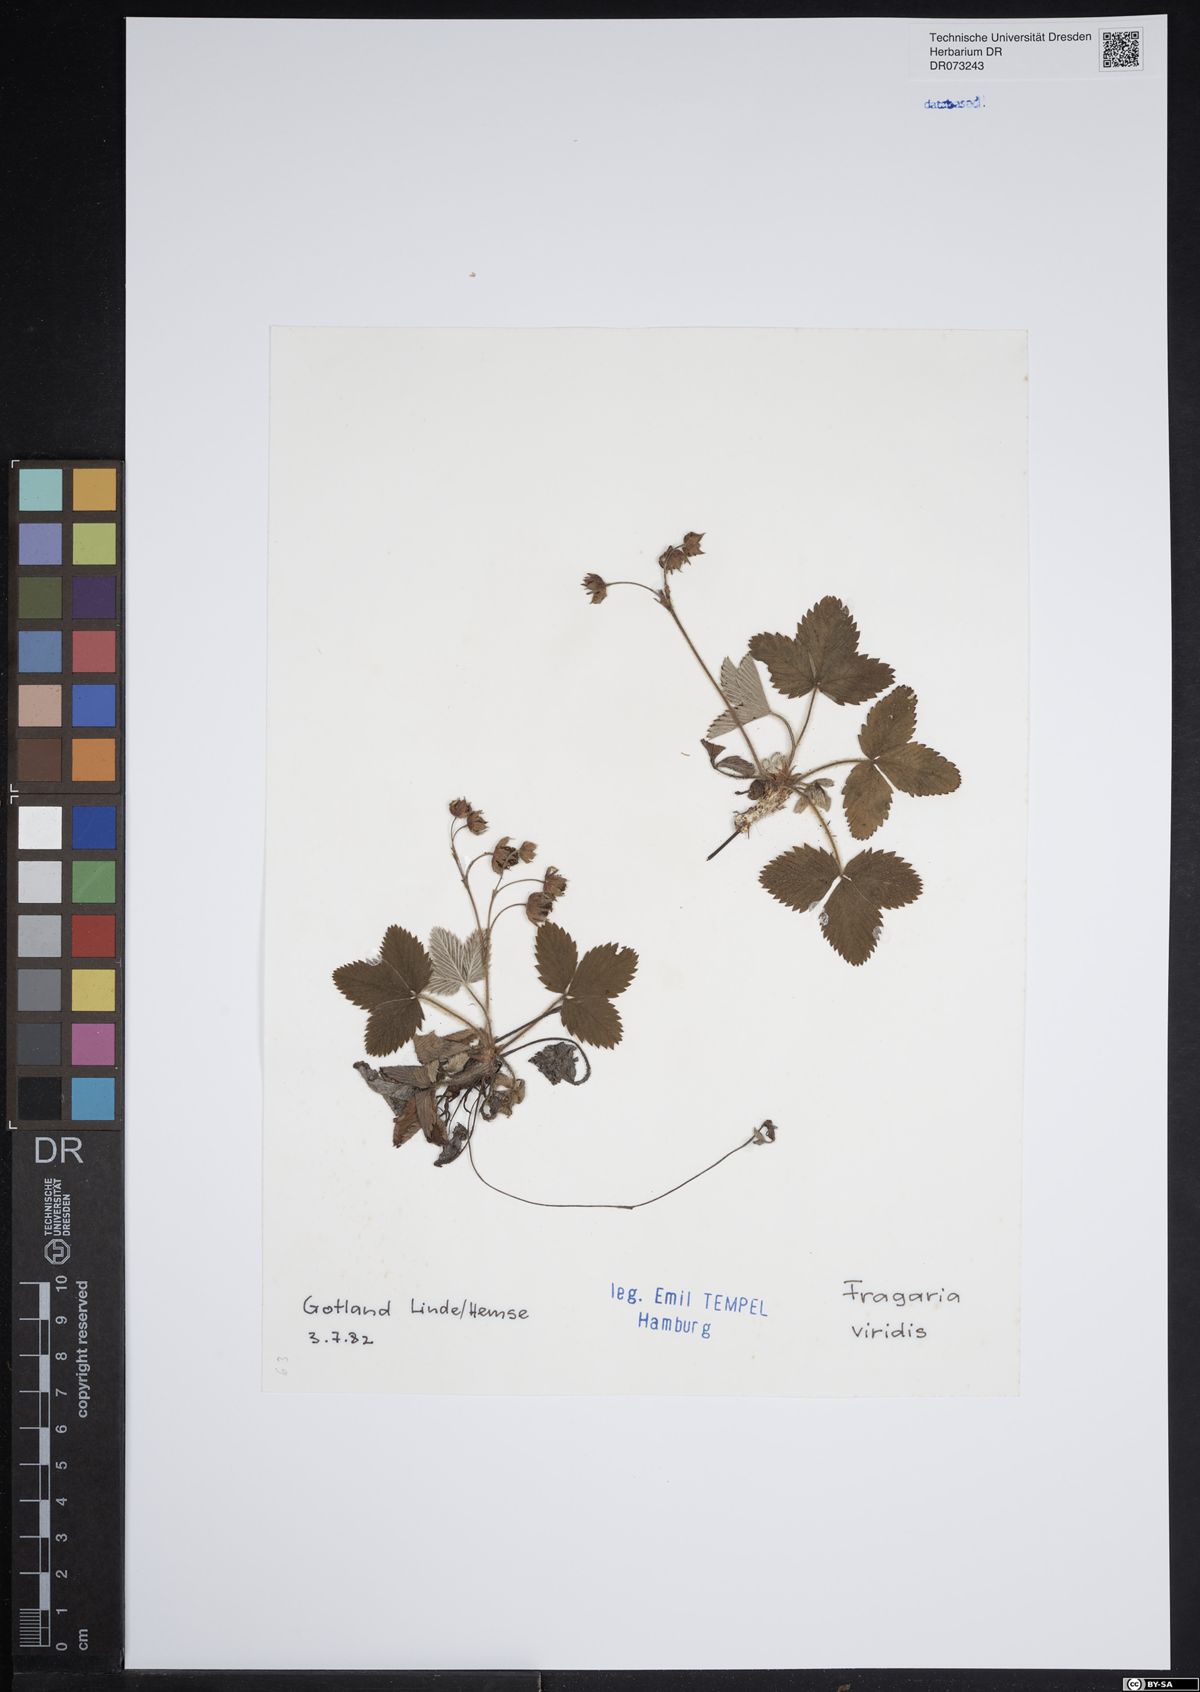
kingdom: Plantae
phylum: Tracheophyta
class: Magnoliopsida
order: Rosales
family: Rosaceae
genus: Fragaria
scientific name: Fragaria viridis
